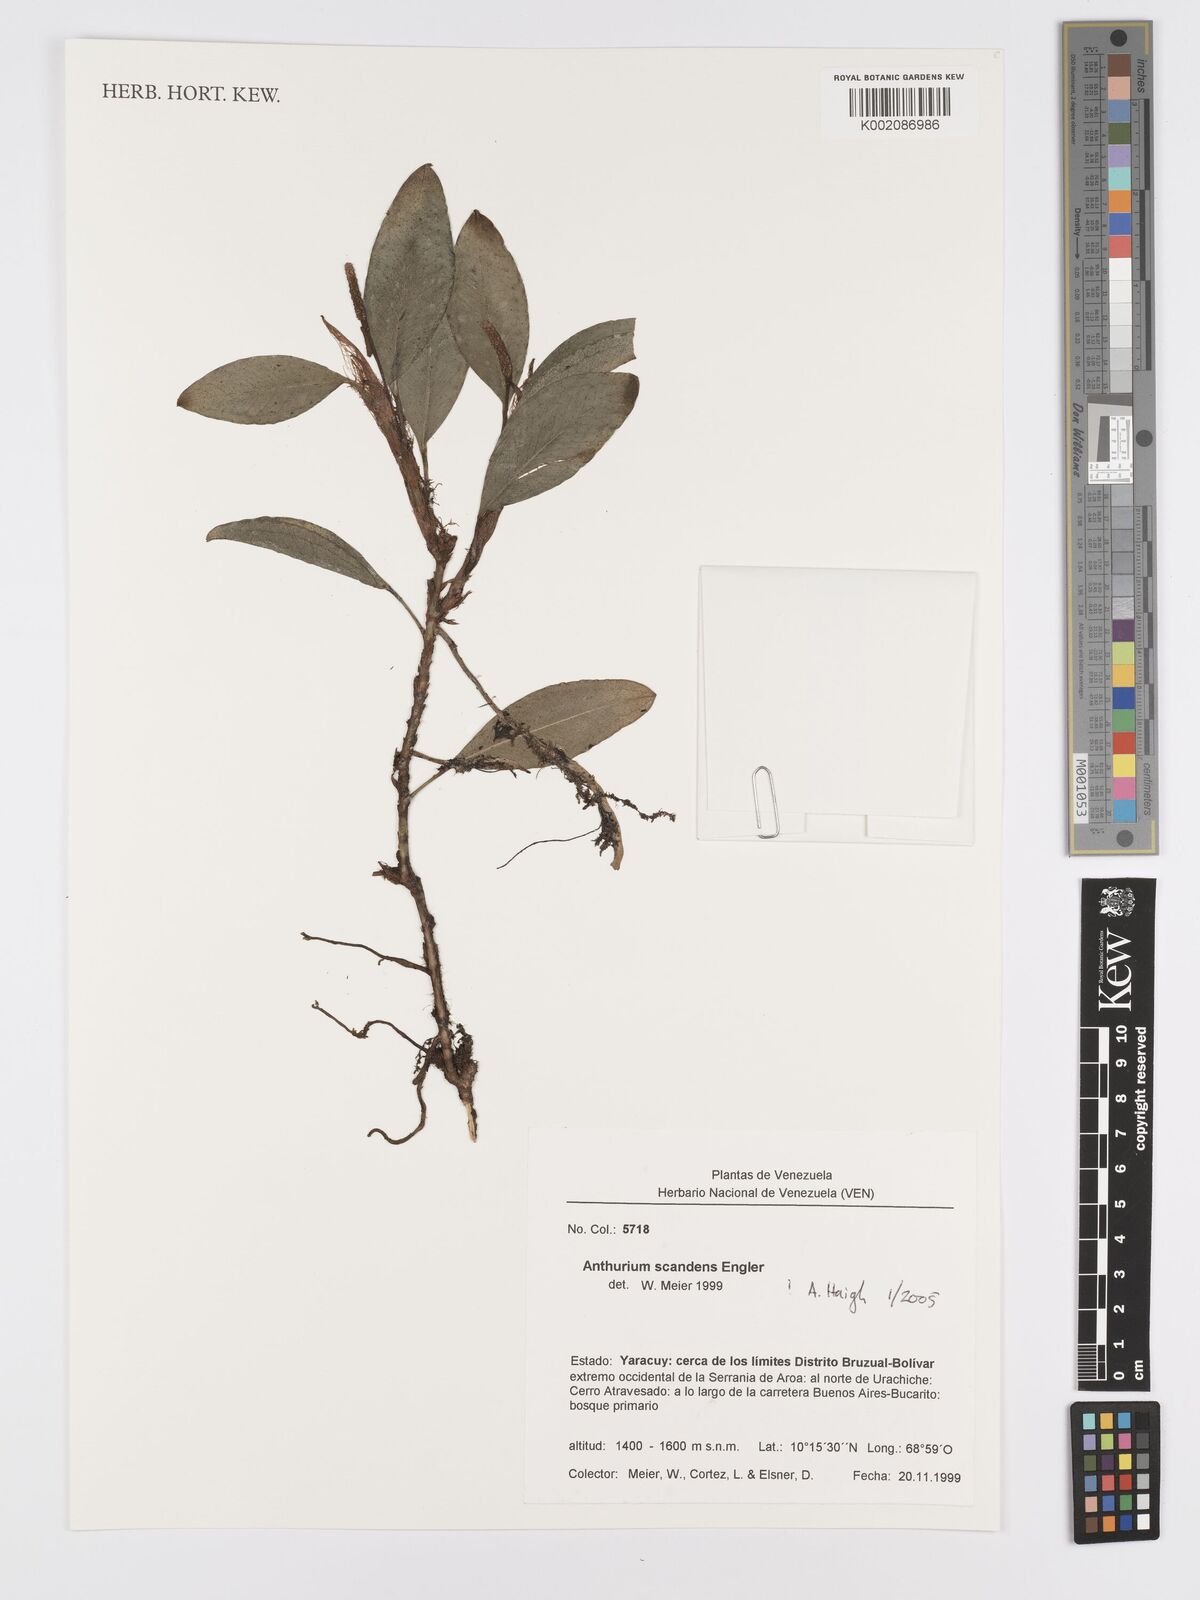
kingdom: Plantae
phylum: Tracheophyta
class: Liliopsida
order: Alismatales
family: Araceae
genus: Anthurium
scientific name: Anthurium scandens
